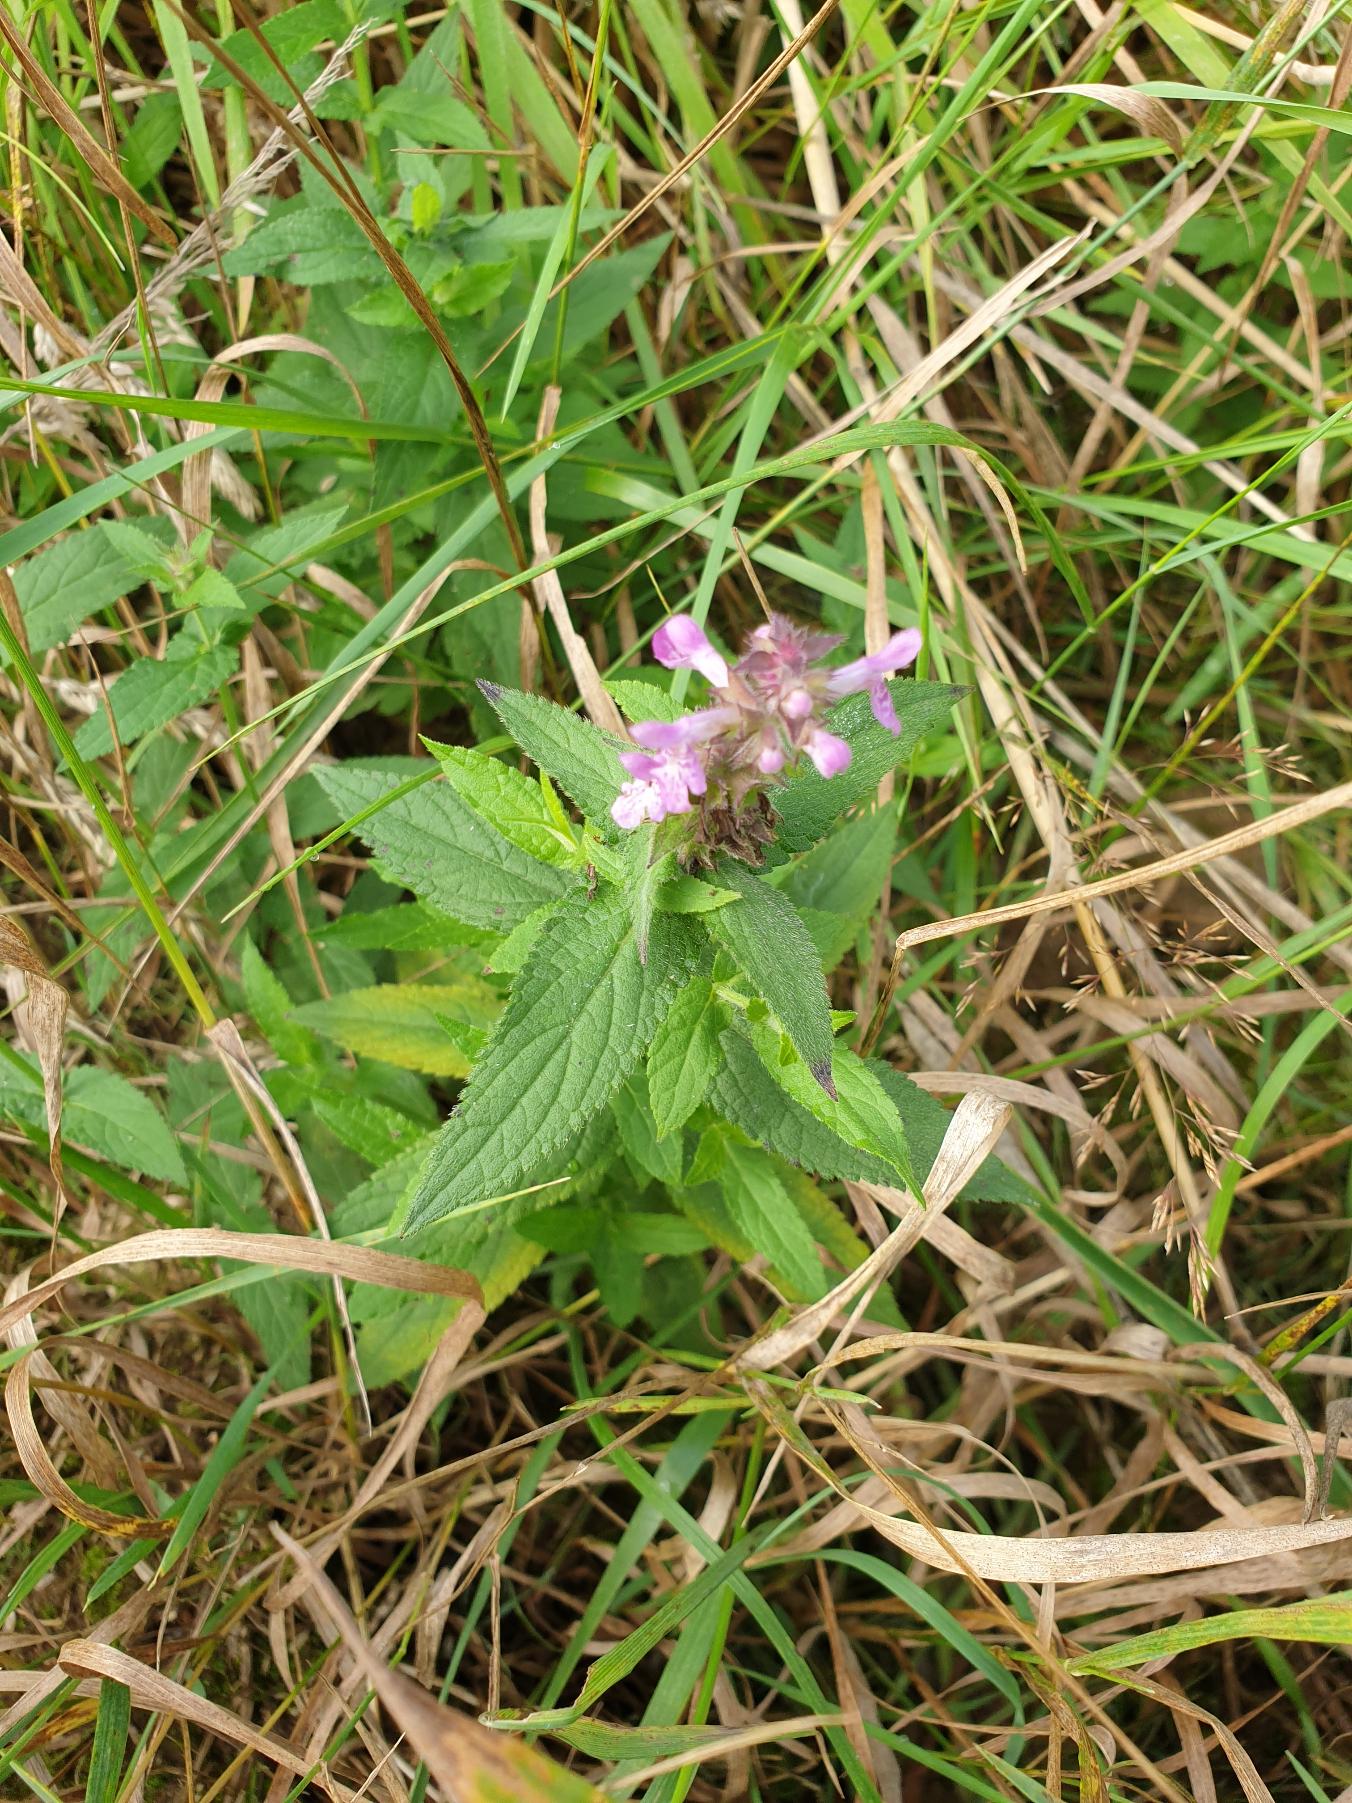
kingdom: Plantae
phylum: Tracheophyta
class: Magnoliopsida
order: Lamiales
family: Lamiaceae
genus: Stachys
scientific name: Stachys palustris
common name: Kær-galtetand
